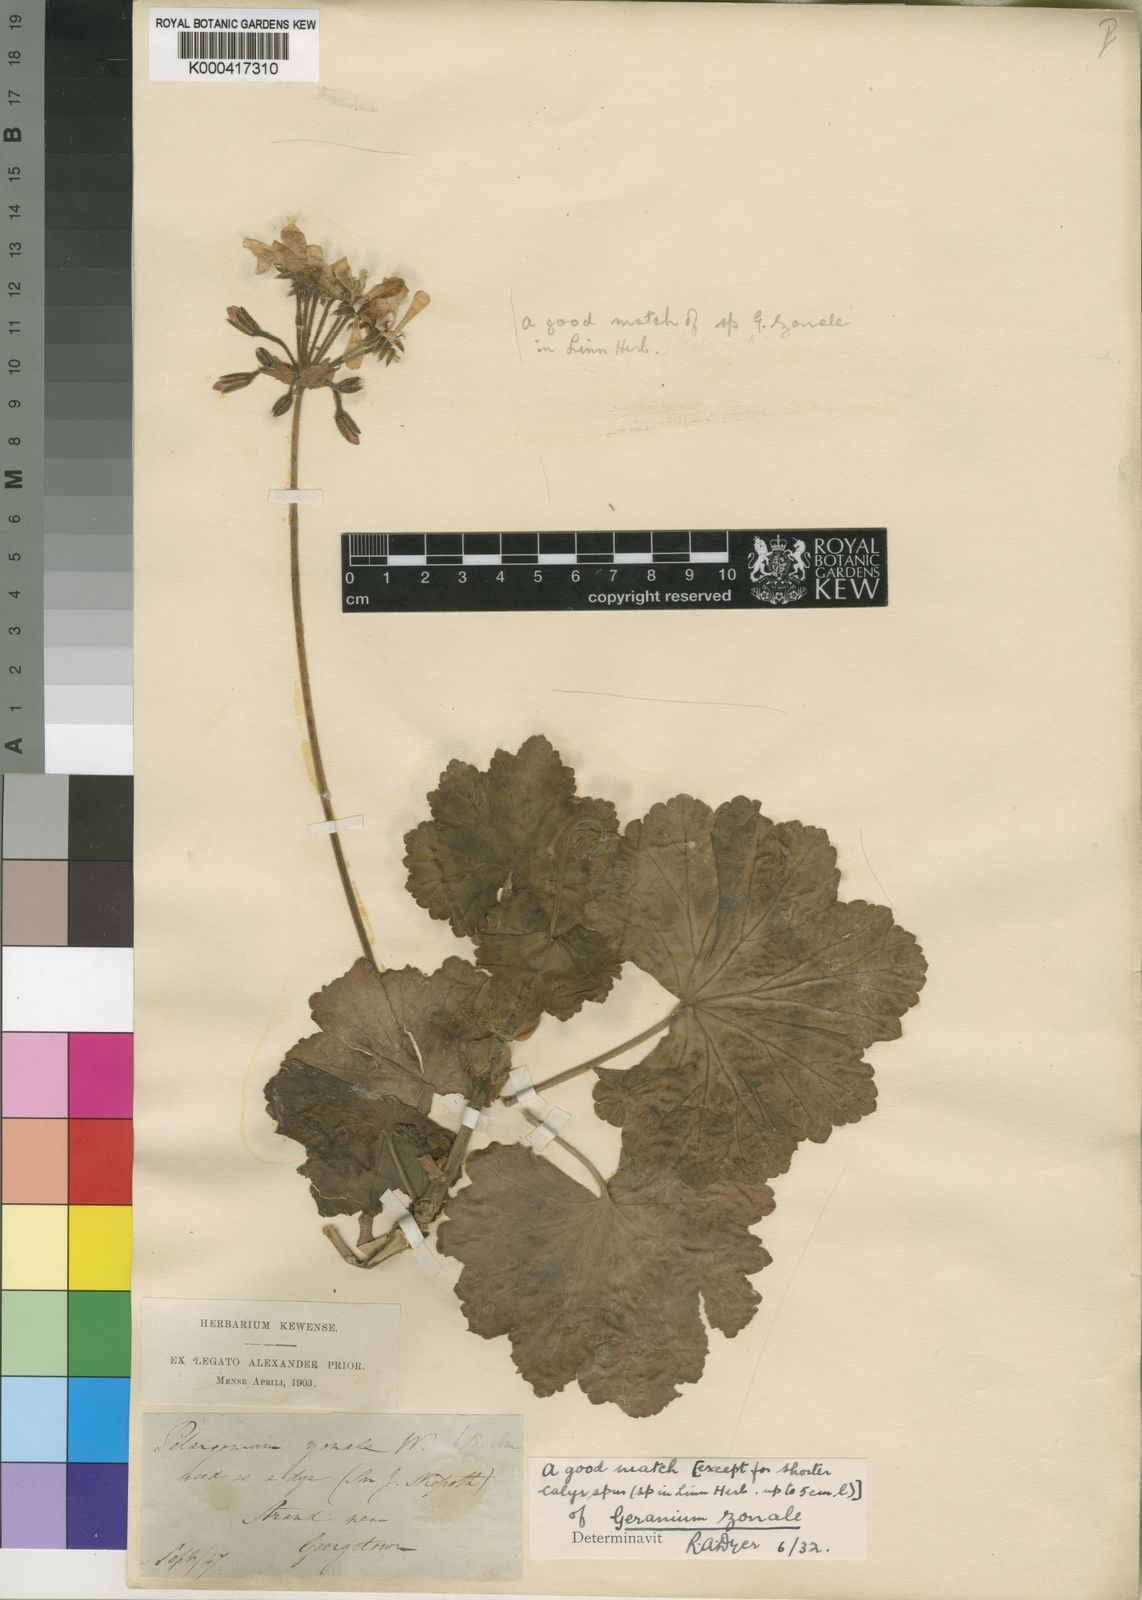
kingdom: Plantae
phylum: Tracheophyta
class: Magnoliopsida
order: Geraniales
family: Geraniaceae
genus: Pelargonium
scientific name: Pelargonium
